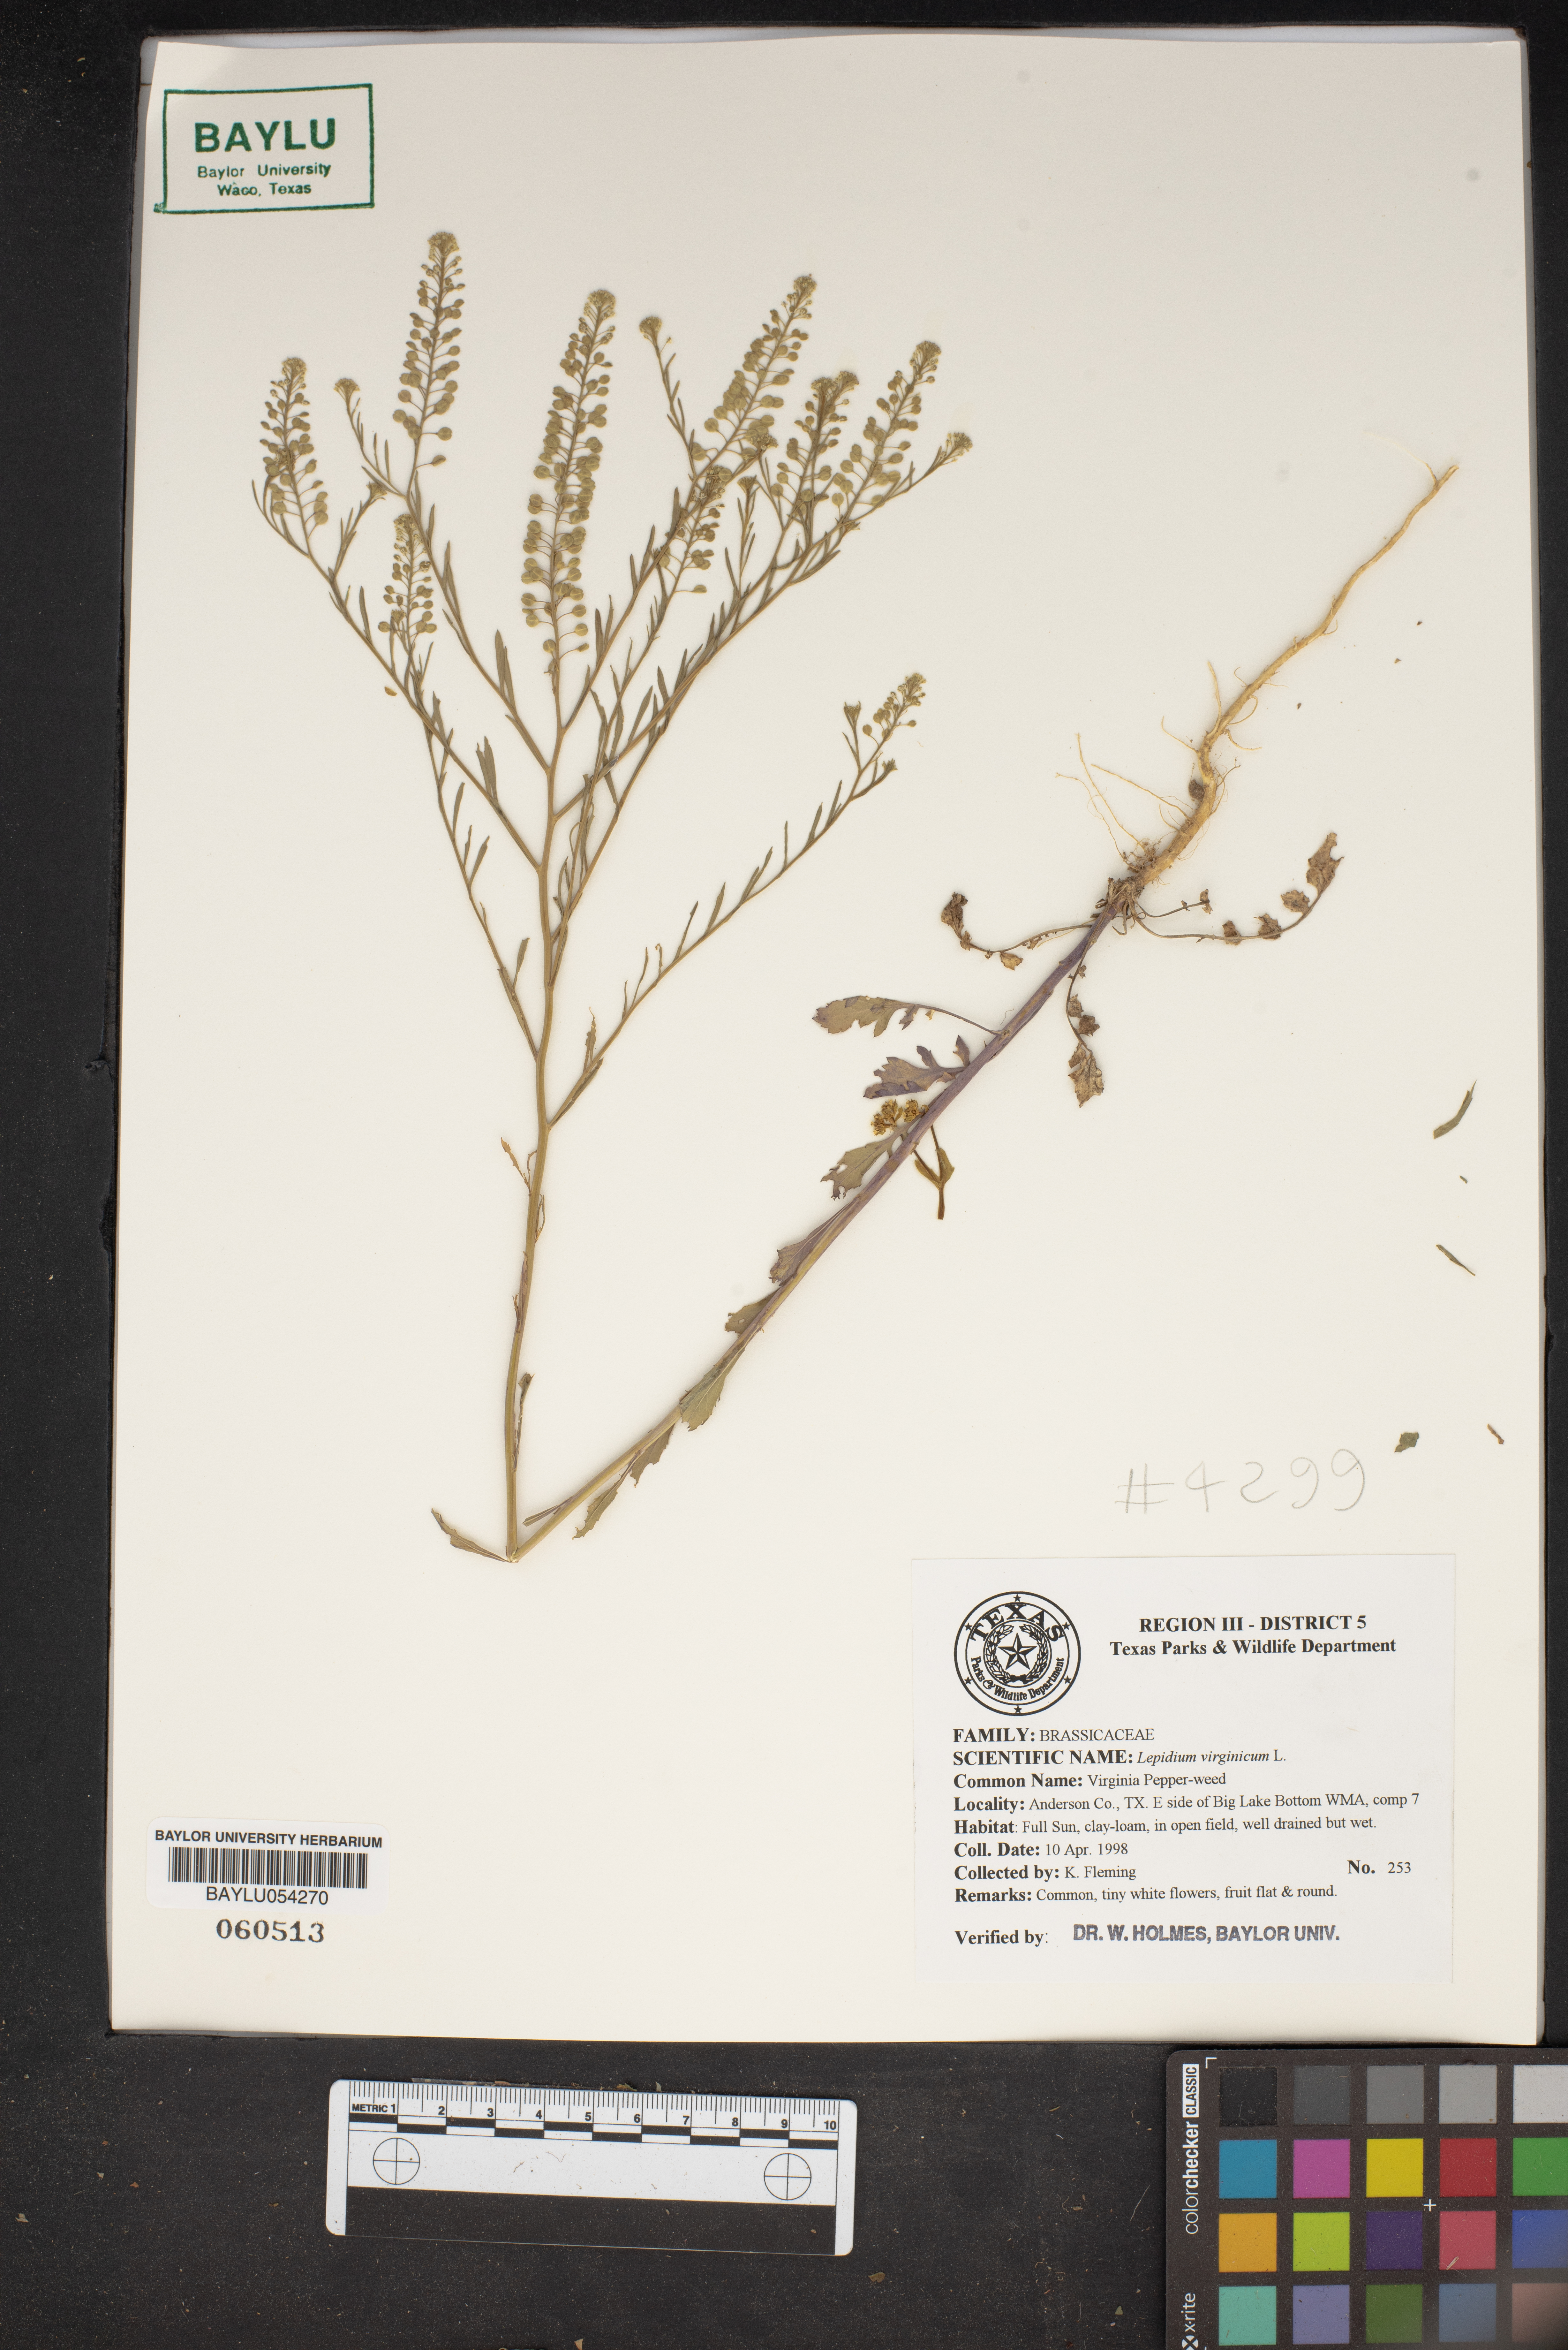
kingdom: Plantae
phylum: Tracheophyta
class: Magnoliopsida
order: Brassicales
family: Brassicaceae
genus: Lepidium
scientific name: Lepidium virginicum
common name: Least pepperwort
